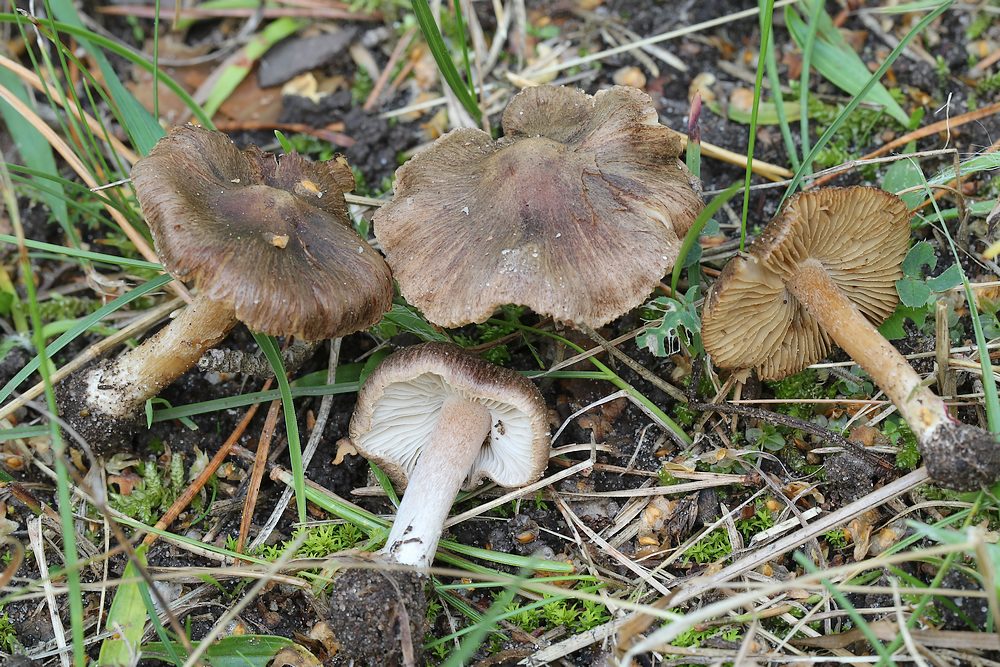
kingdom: Fungi
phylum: Basidiomycota
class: Agaricomycetes
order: Agaricales
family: Inocybaceae
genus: Inocybe
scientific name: Inocybe
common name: trævlhat
